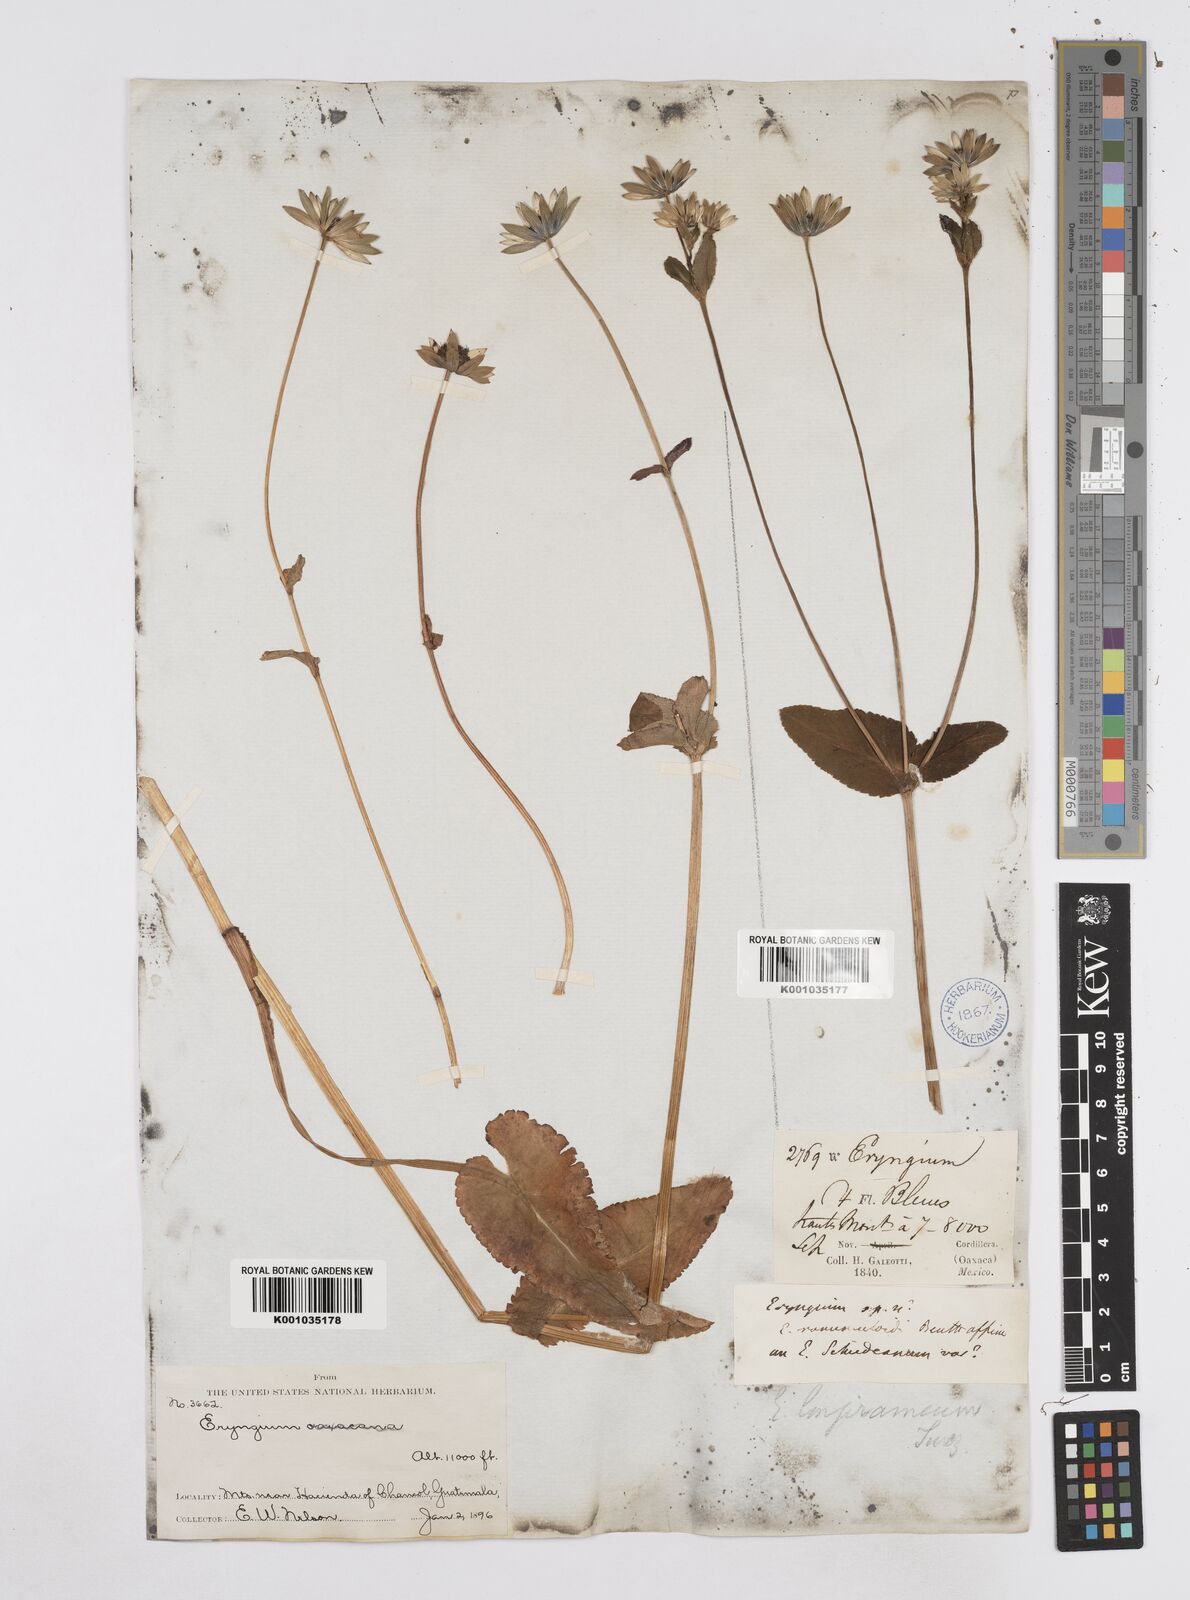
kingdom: Plantae
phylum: Tracheophyta
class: Magnoliopsida
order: Apiales
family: Apiaceae
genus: Eryngium
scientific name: Eryngium gracile
